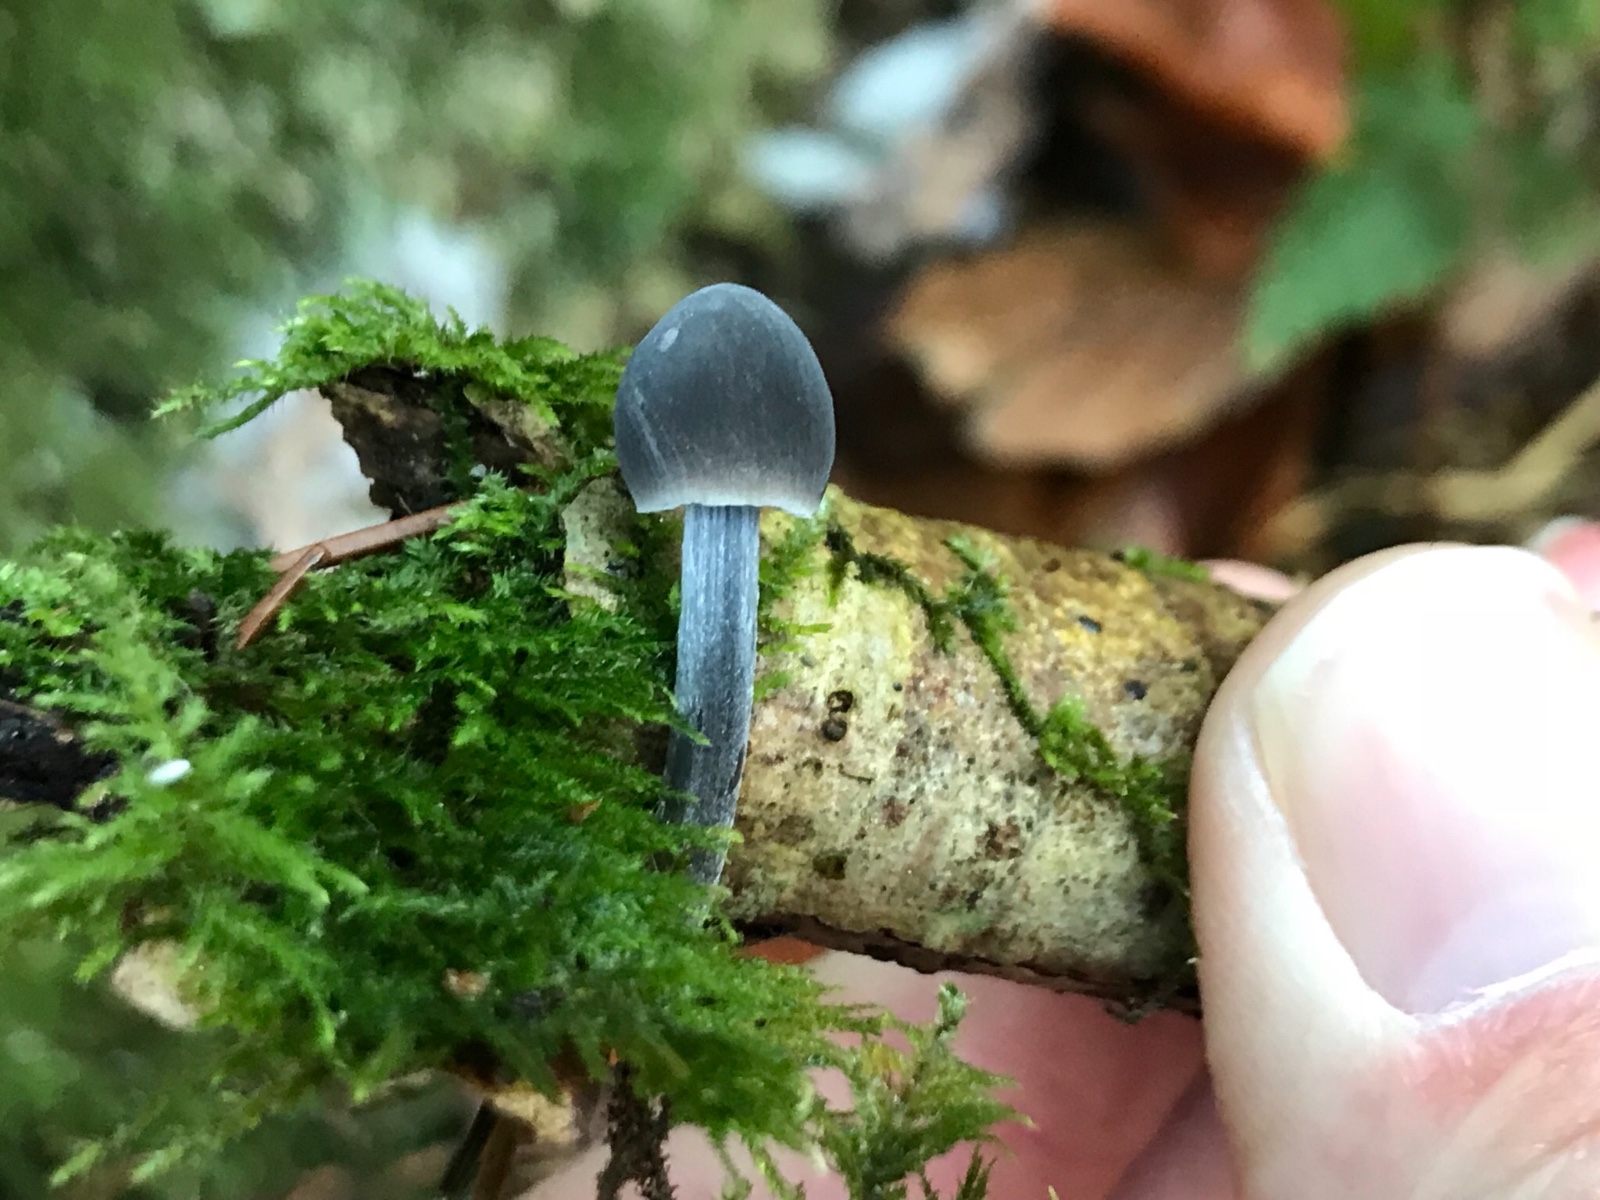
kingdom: Fungi
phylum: Basidiomycota
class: Agaricomycetes
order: Agaricales
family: Mycenaceae
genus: Mycena
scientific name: Mycena
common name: huesvamp
